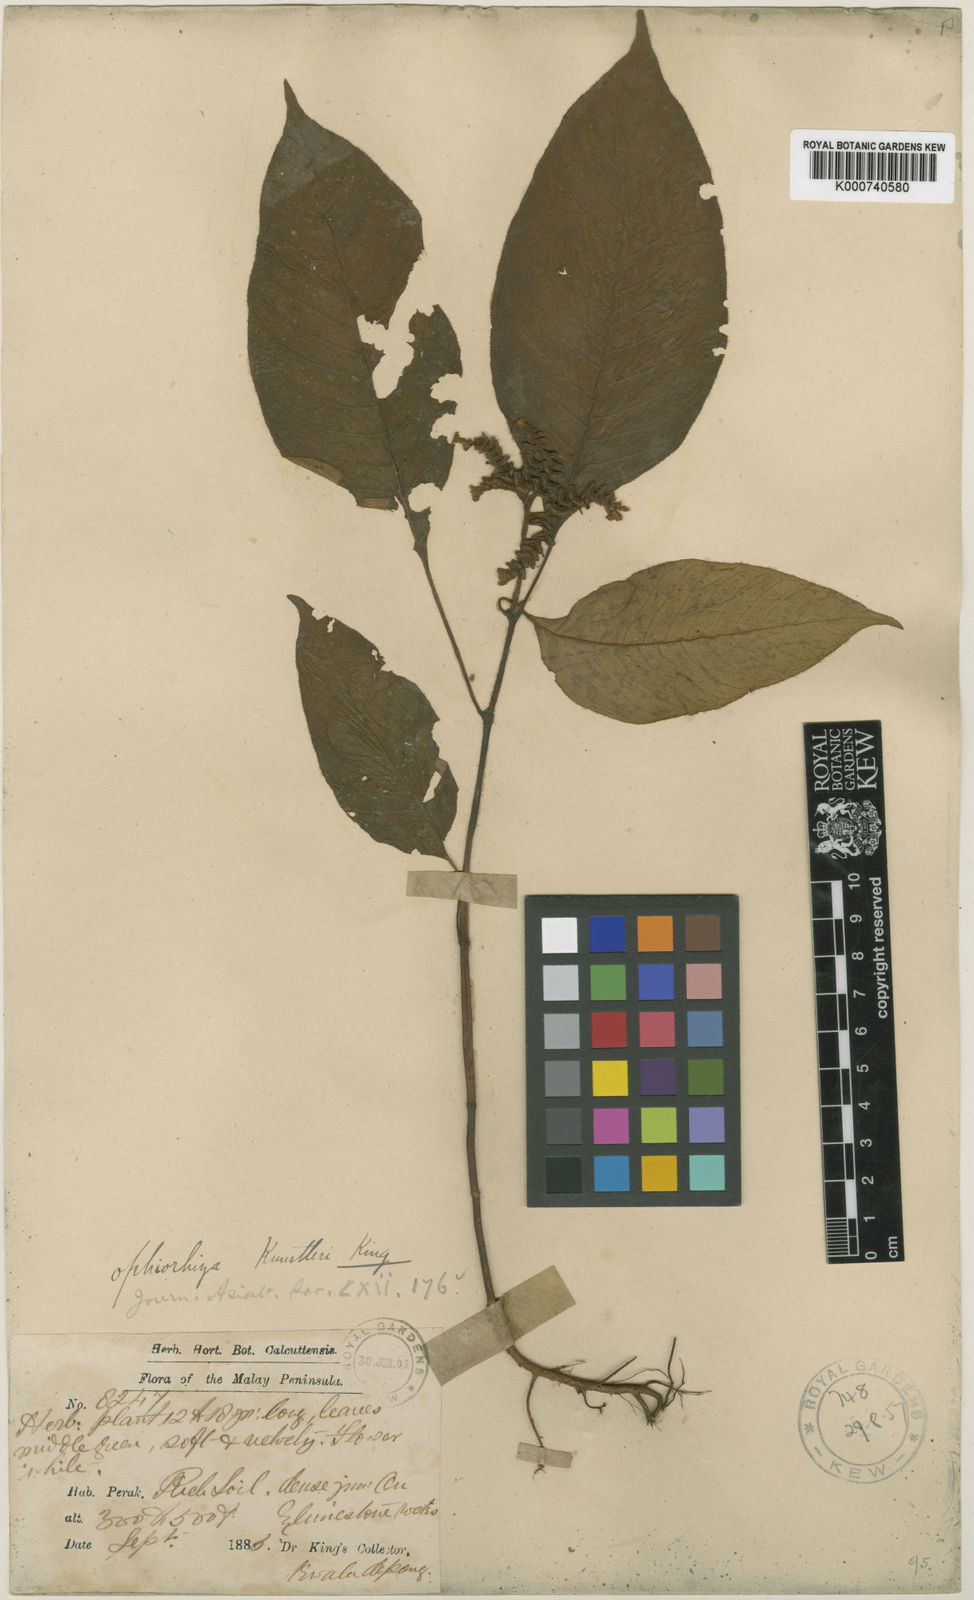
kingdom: Plantae
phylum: Tracheophyta
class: Magnoliopsida
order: Gentianales
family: Rubiaceae
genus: Ophiorrhiza
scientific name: Ophiorrhiza kunstleri
